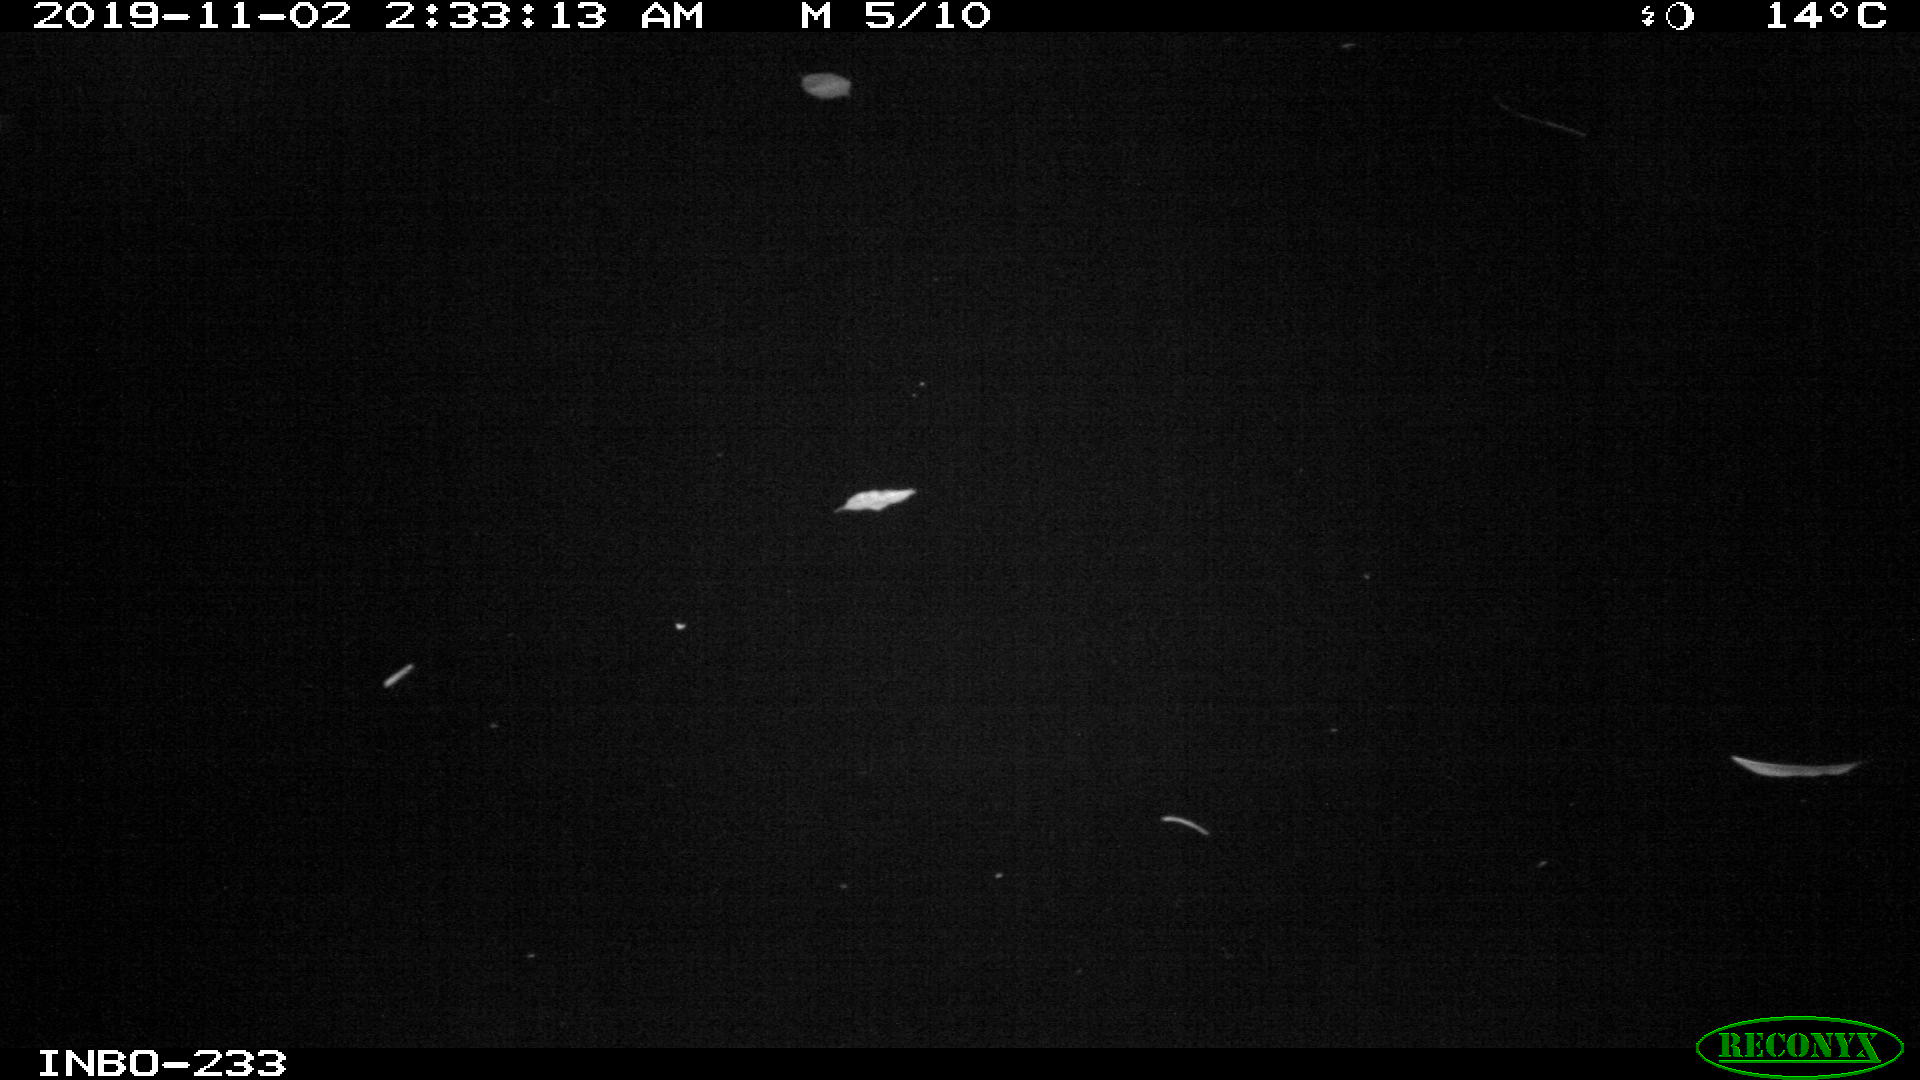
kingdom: Animalia
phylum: Chordata
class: Aves
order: Anseriformes
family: Anatidae
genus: Anas
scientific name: Anas platyrhynchos
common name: Mallard
